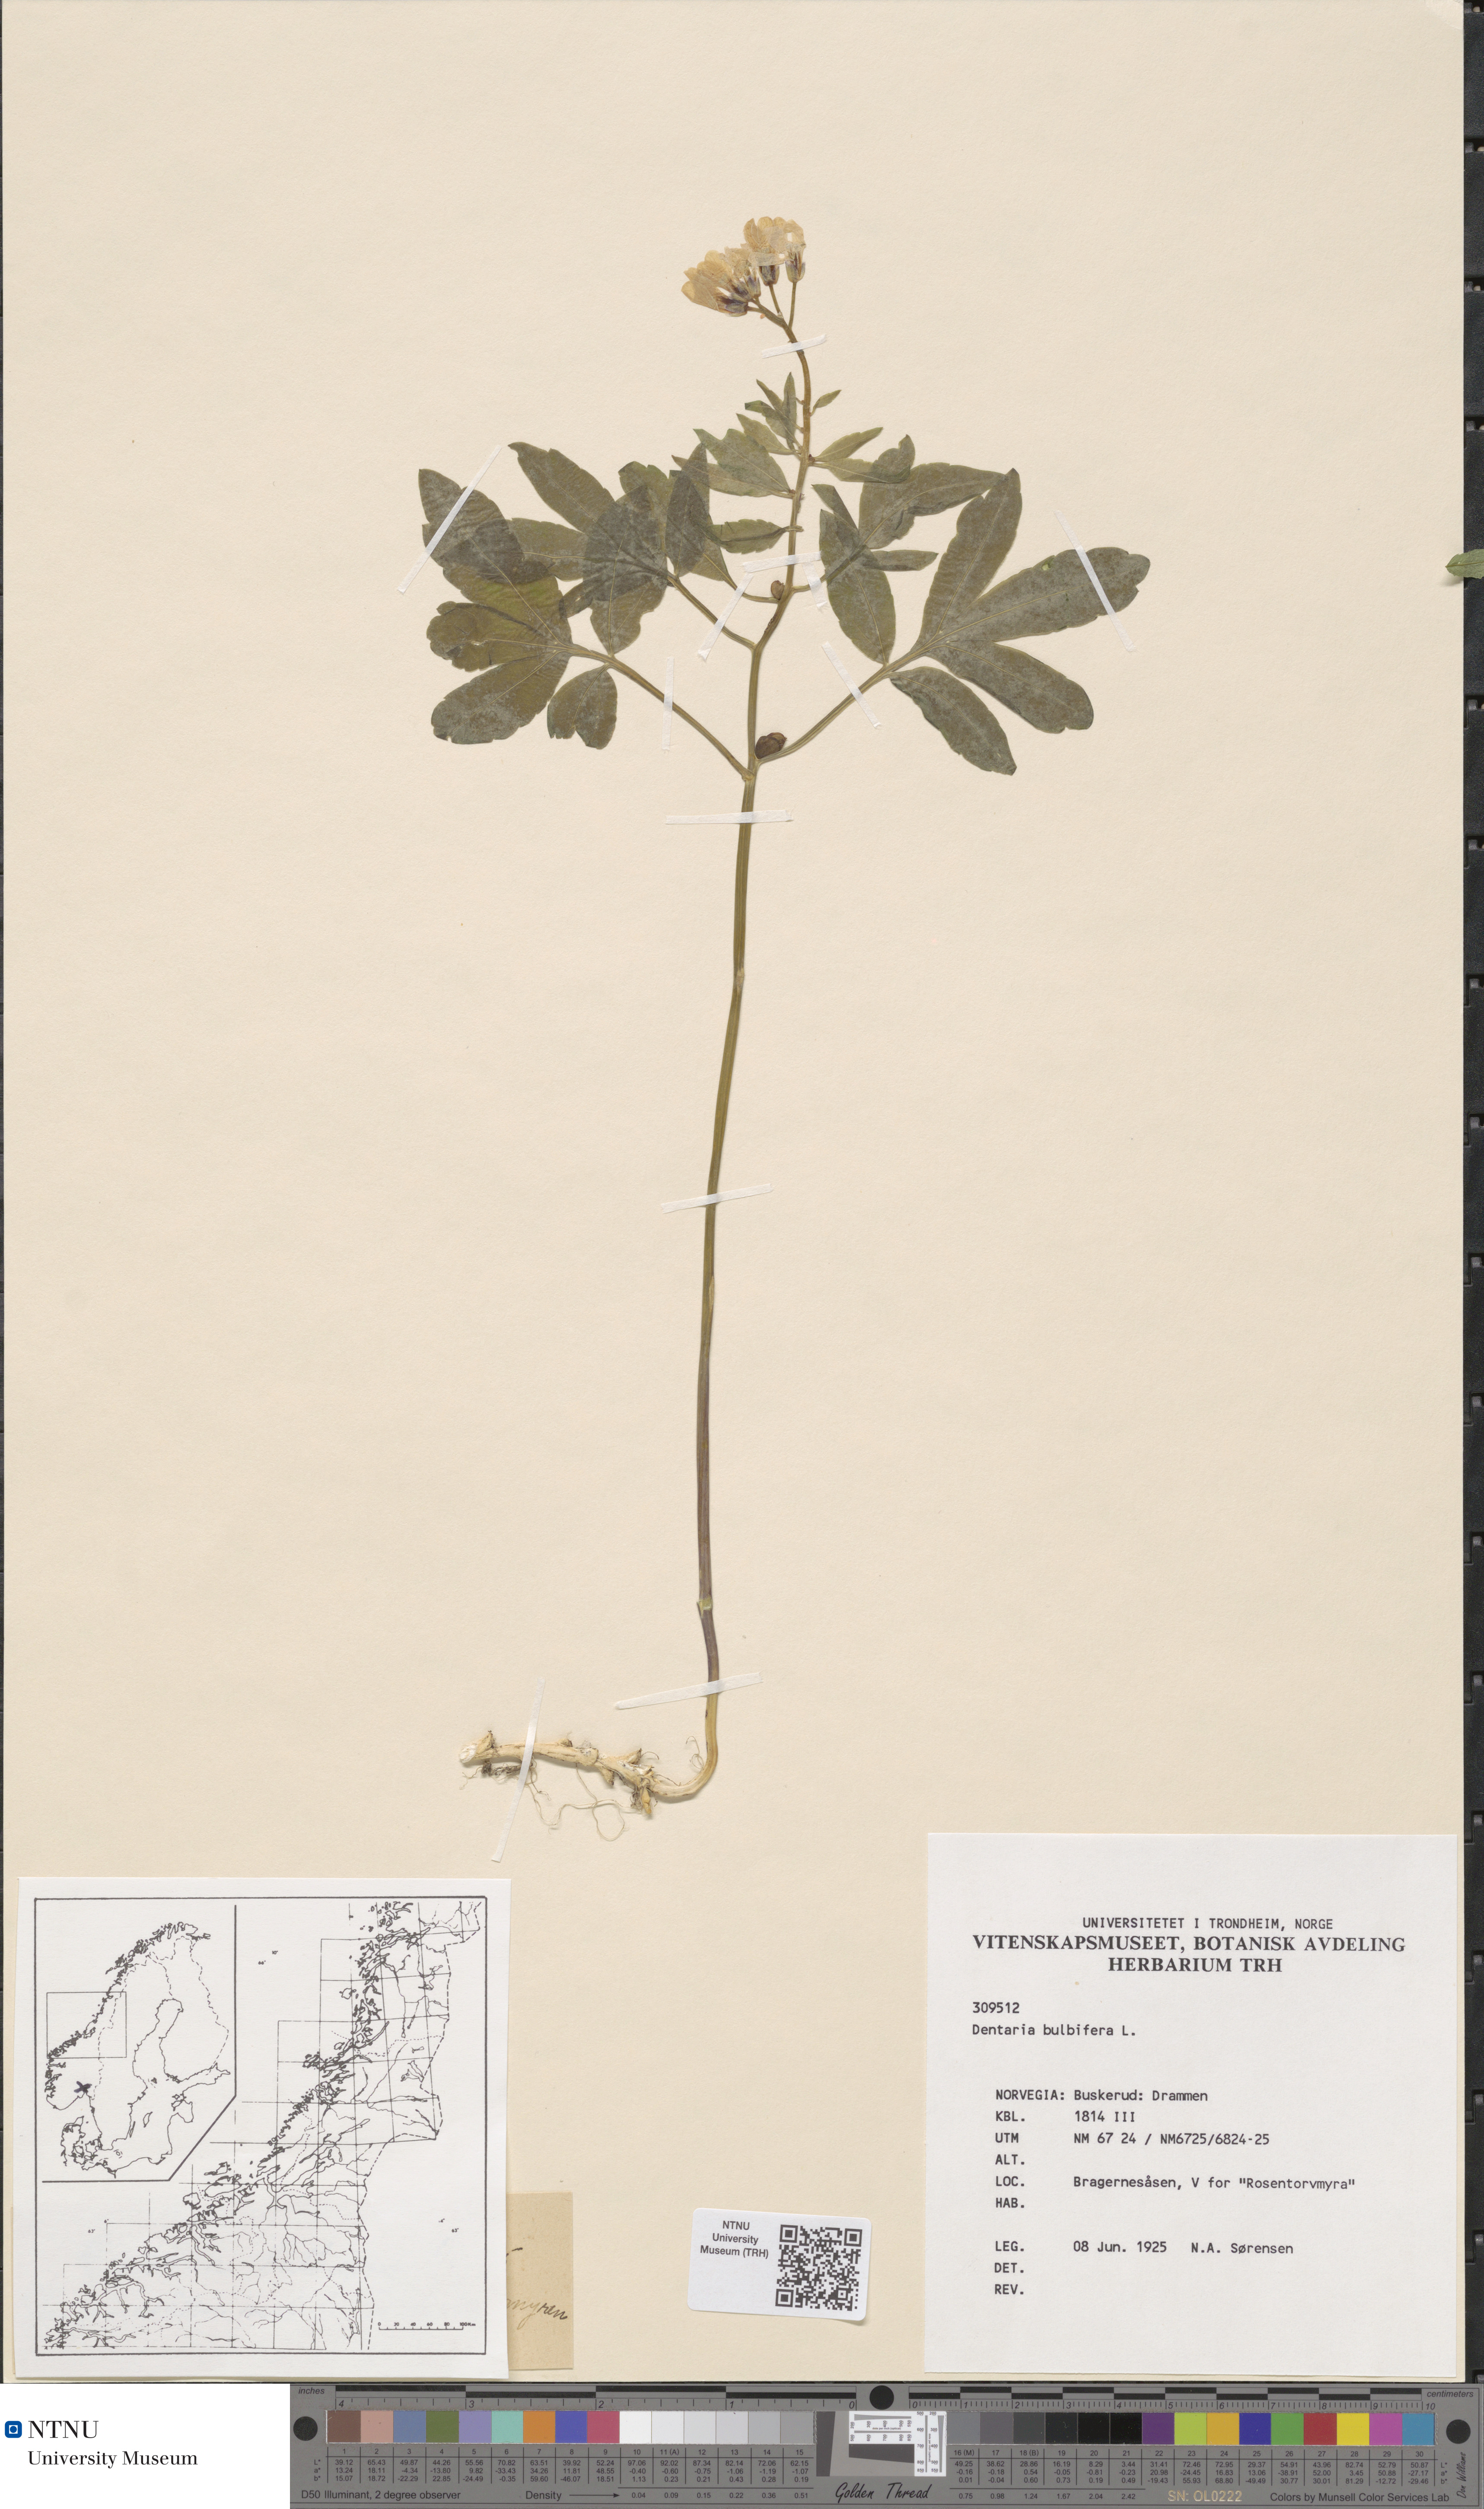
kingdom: Plantae
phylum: Tracheophyta
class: Magnoliopsida
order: Brassicales
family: Brassicaceae
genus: Cardamine
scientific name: Cardamine bulbifera
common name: Coralroot bittercress
